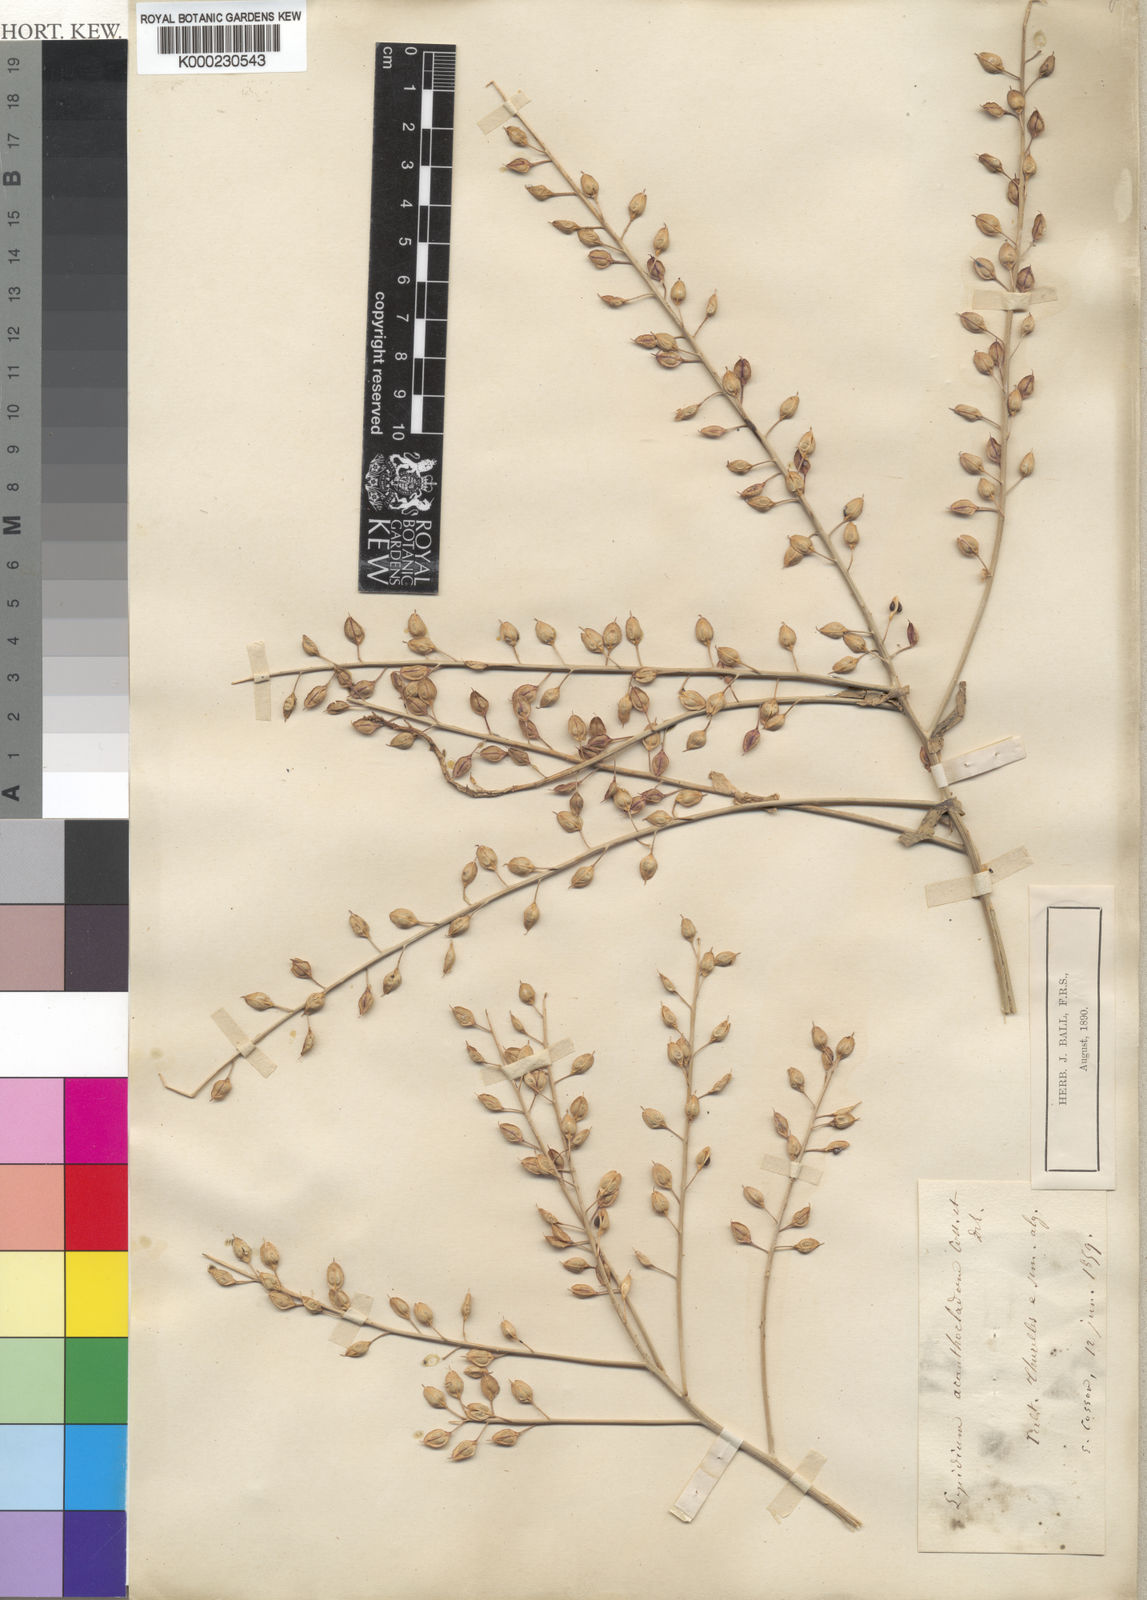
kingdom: Plantae
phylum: Tracheophyta
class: Magnoliopsida
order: Brassicales
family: Brassicaceae
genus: Lepidium
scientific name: Lepidium rigidum
